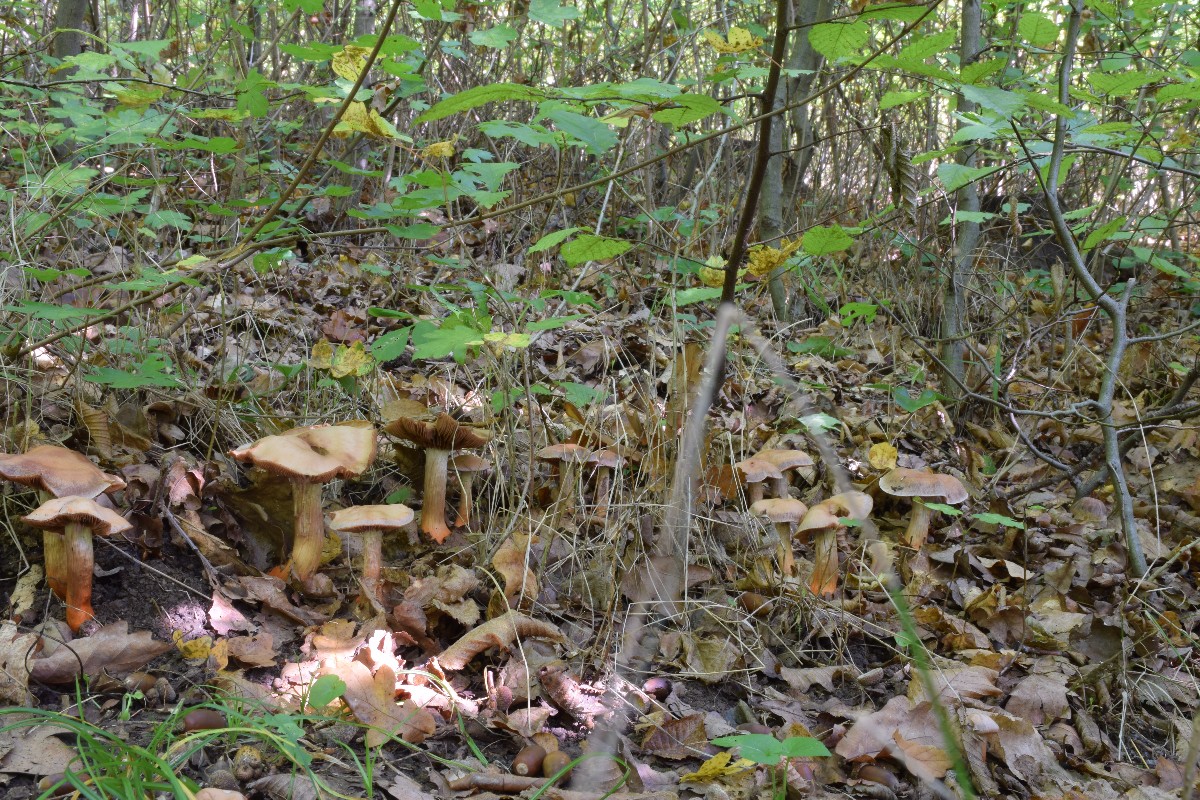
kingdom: Fungi
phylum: Basidiomycota
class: Agaricomycetes
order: Agaricales
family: Cortinariaceae
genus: Cortinarius
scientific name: Cortinarius bulliardii
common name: Bulliards slørhat
